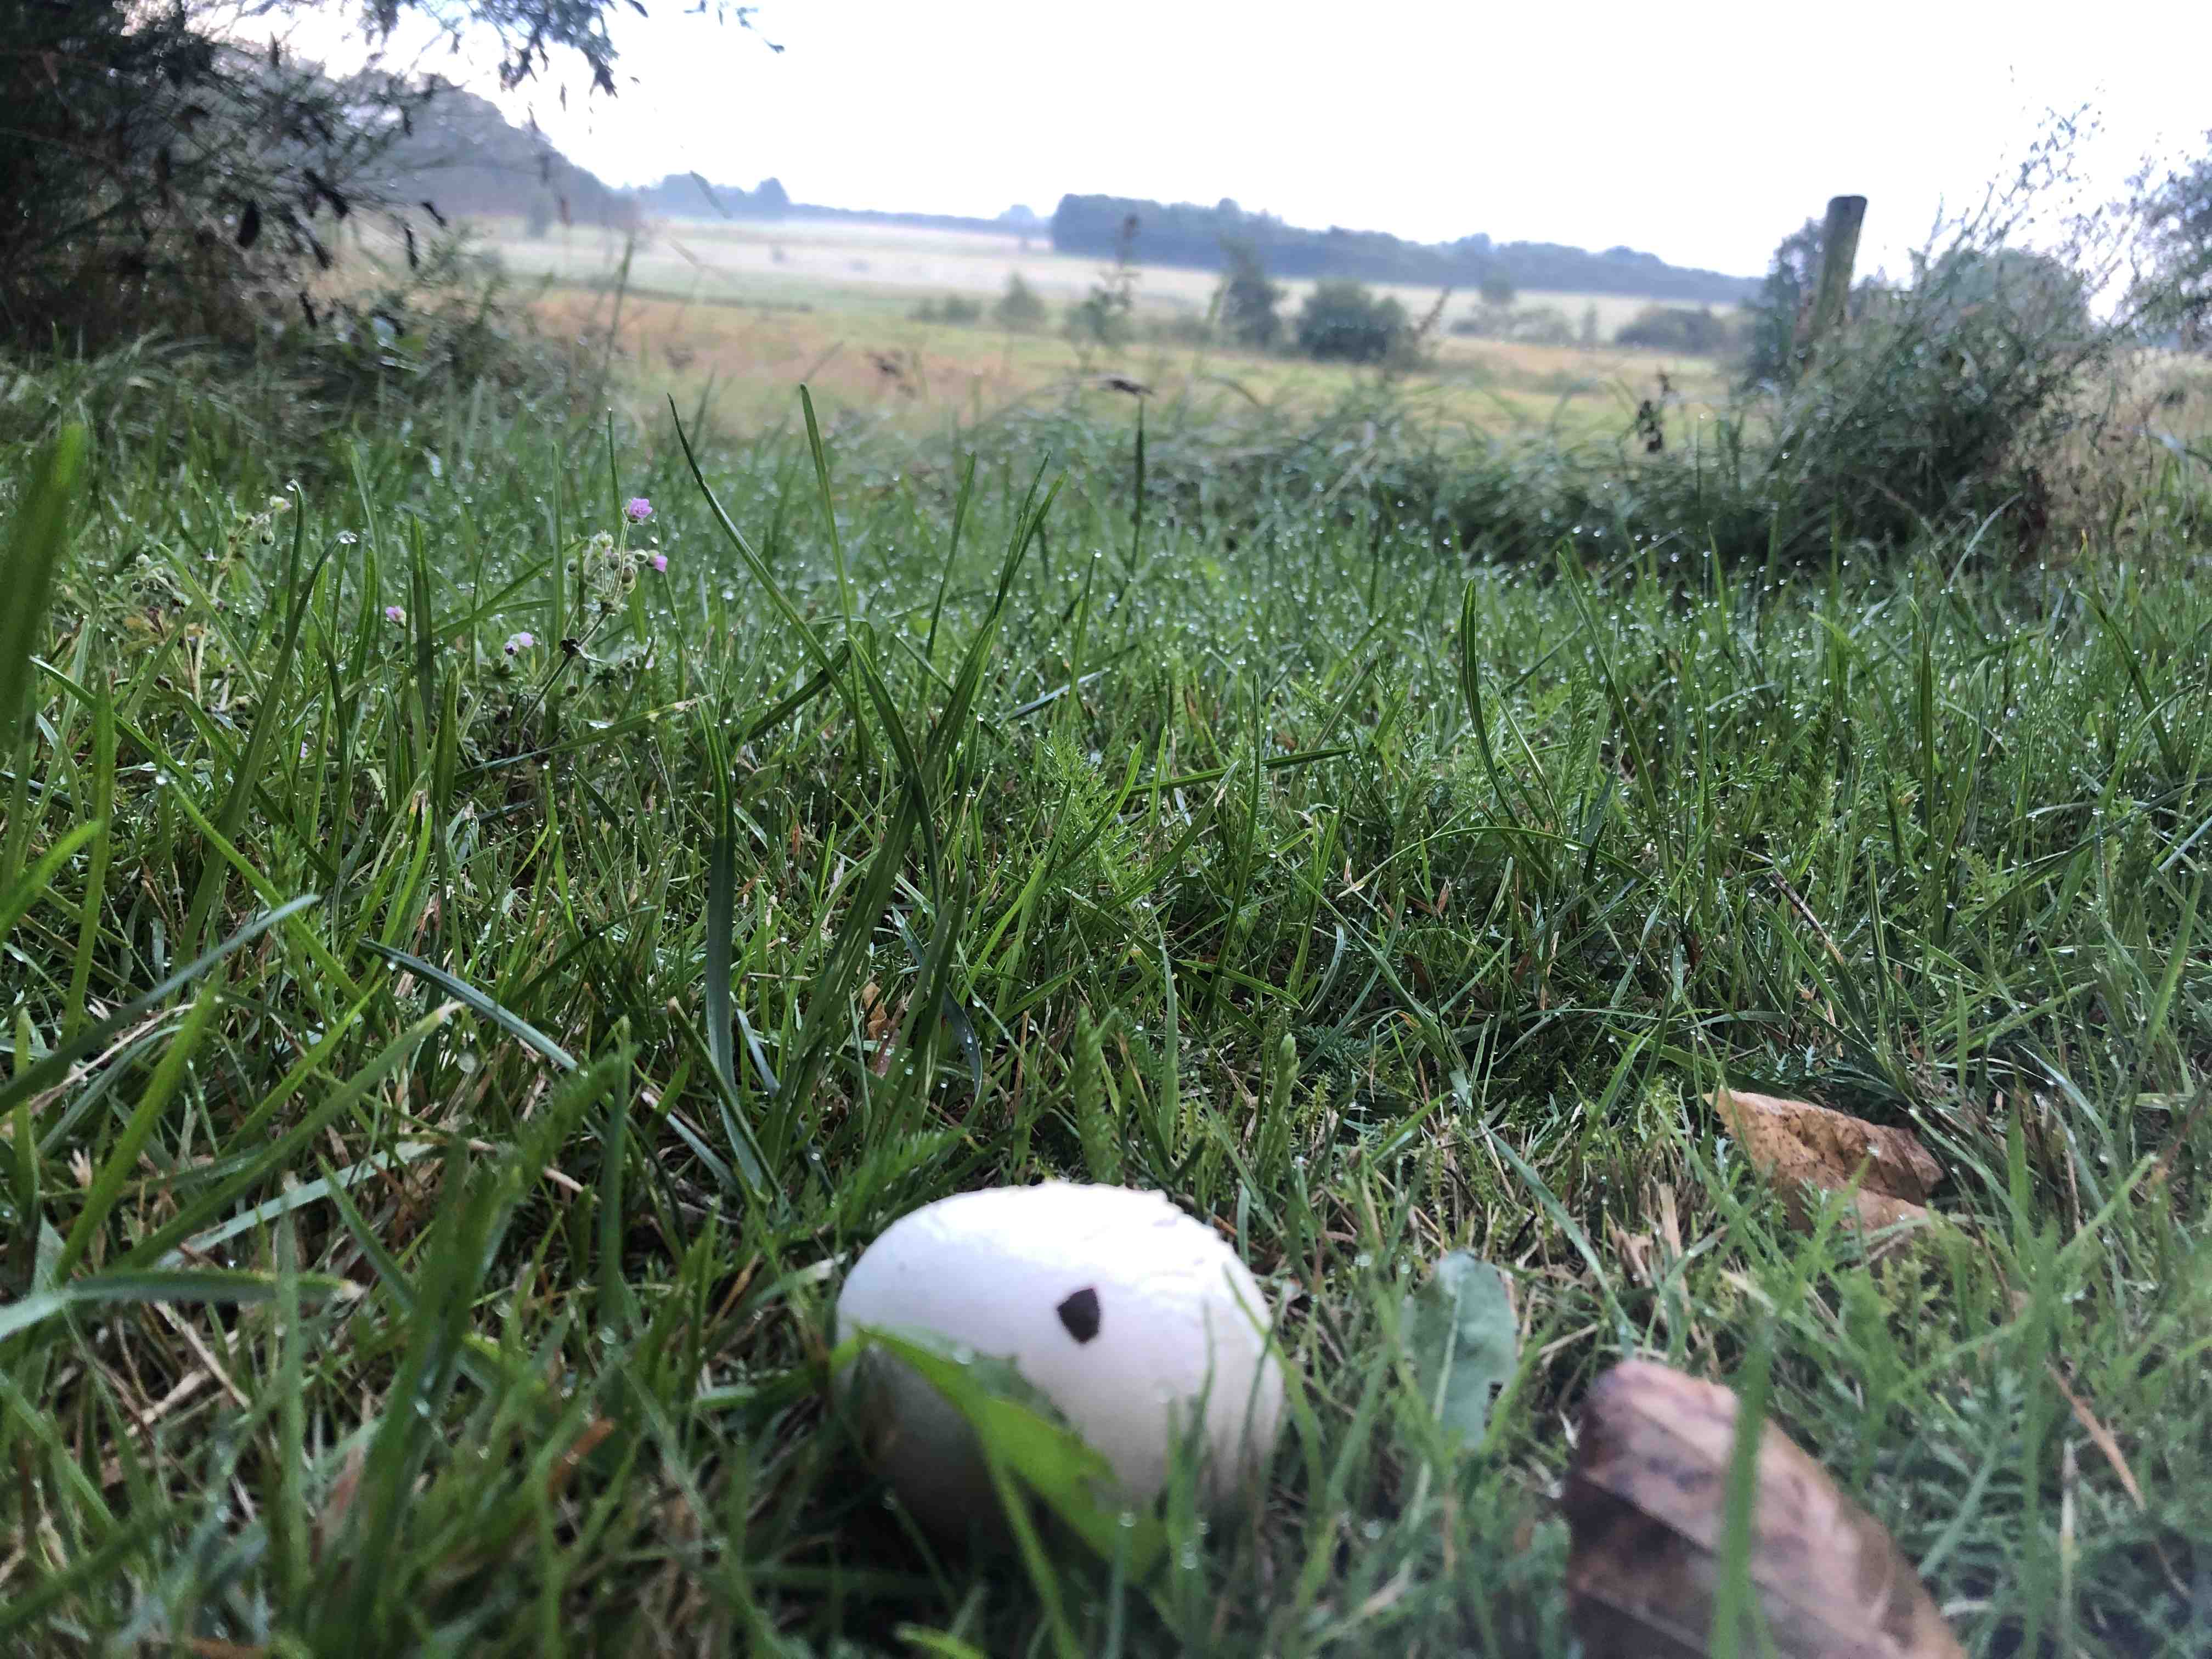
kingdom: Fungi
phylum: Basidiomycota
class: Agaricomycetes
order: Agaricales
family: Agaricaceae
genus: Agaricus
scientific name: Agaricus campestris
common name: mark-champignon
